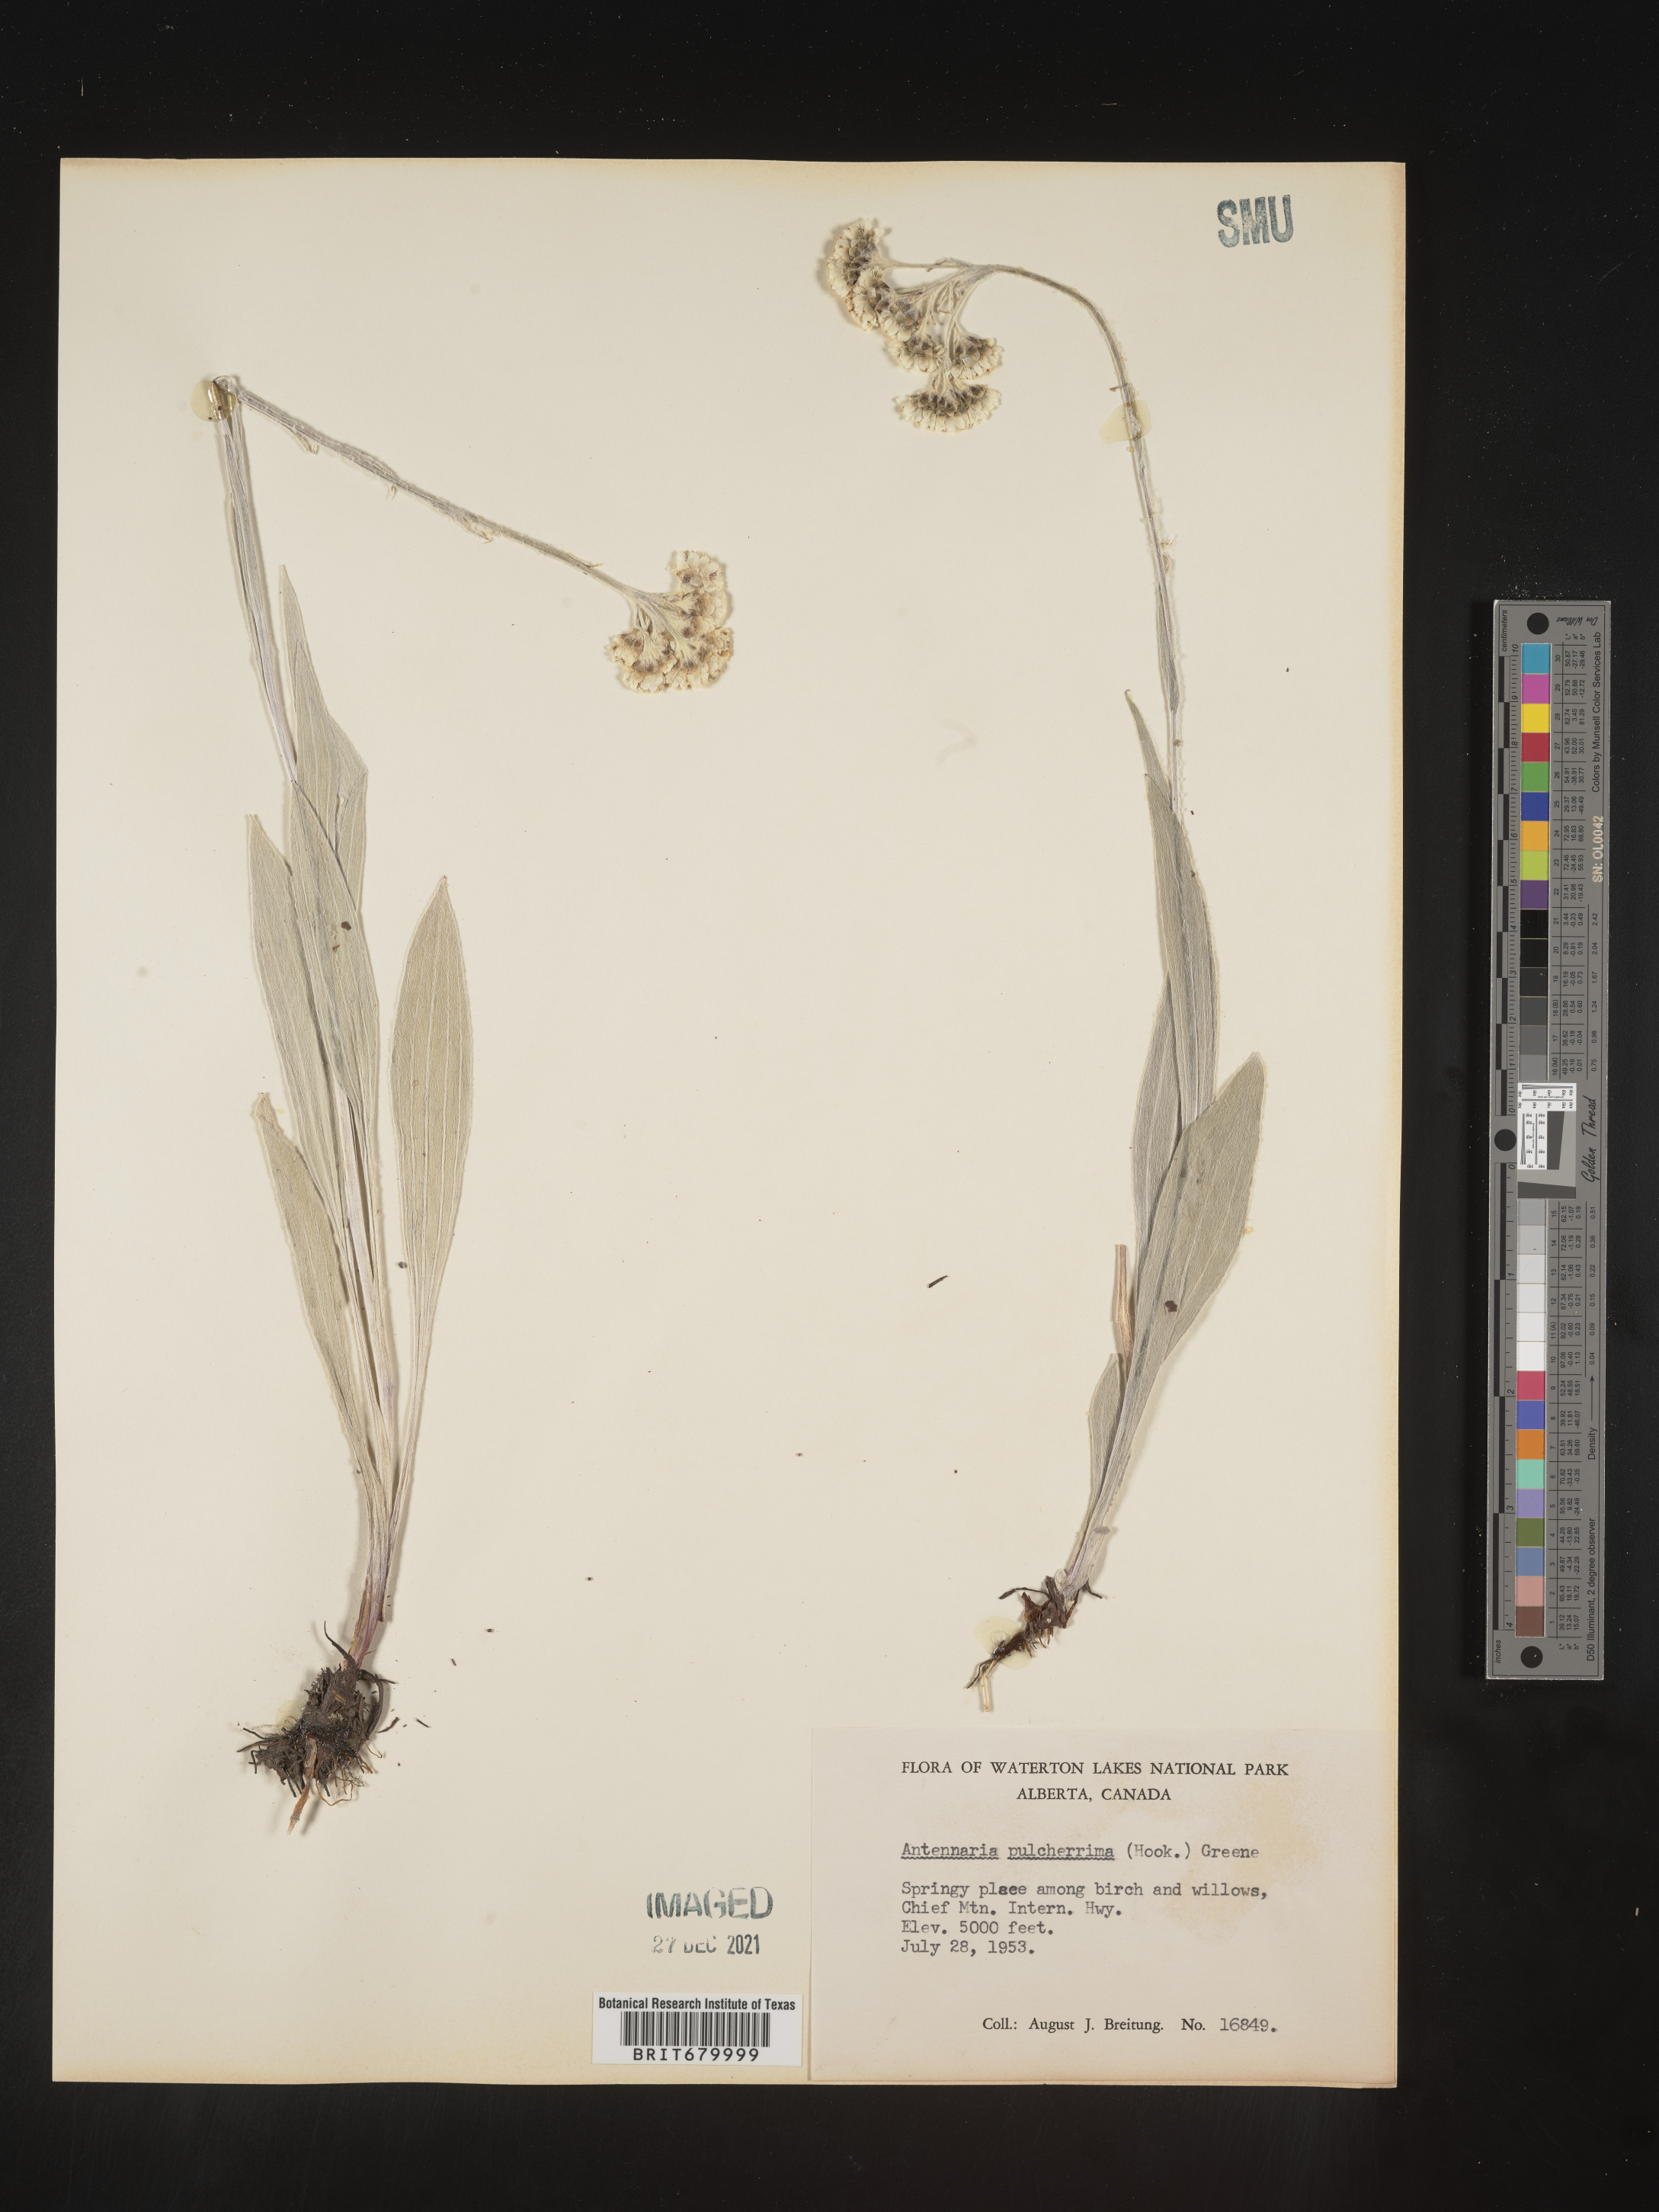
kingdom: Plantae
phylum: Tracheophyta
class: Magnoliopsida
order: Asterales
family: Asteraceae
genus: Antennaria
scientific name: Antennaria pulcherrima
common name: Handsome pussytoes
